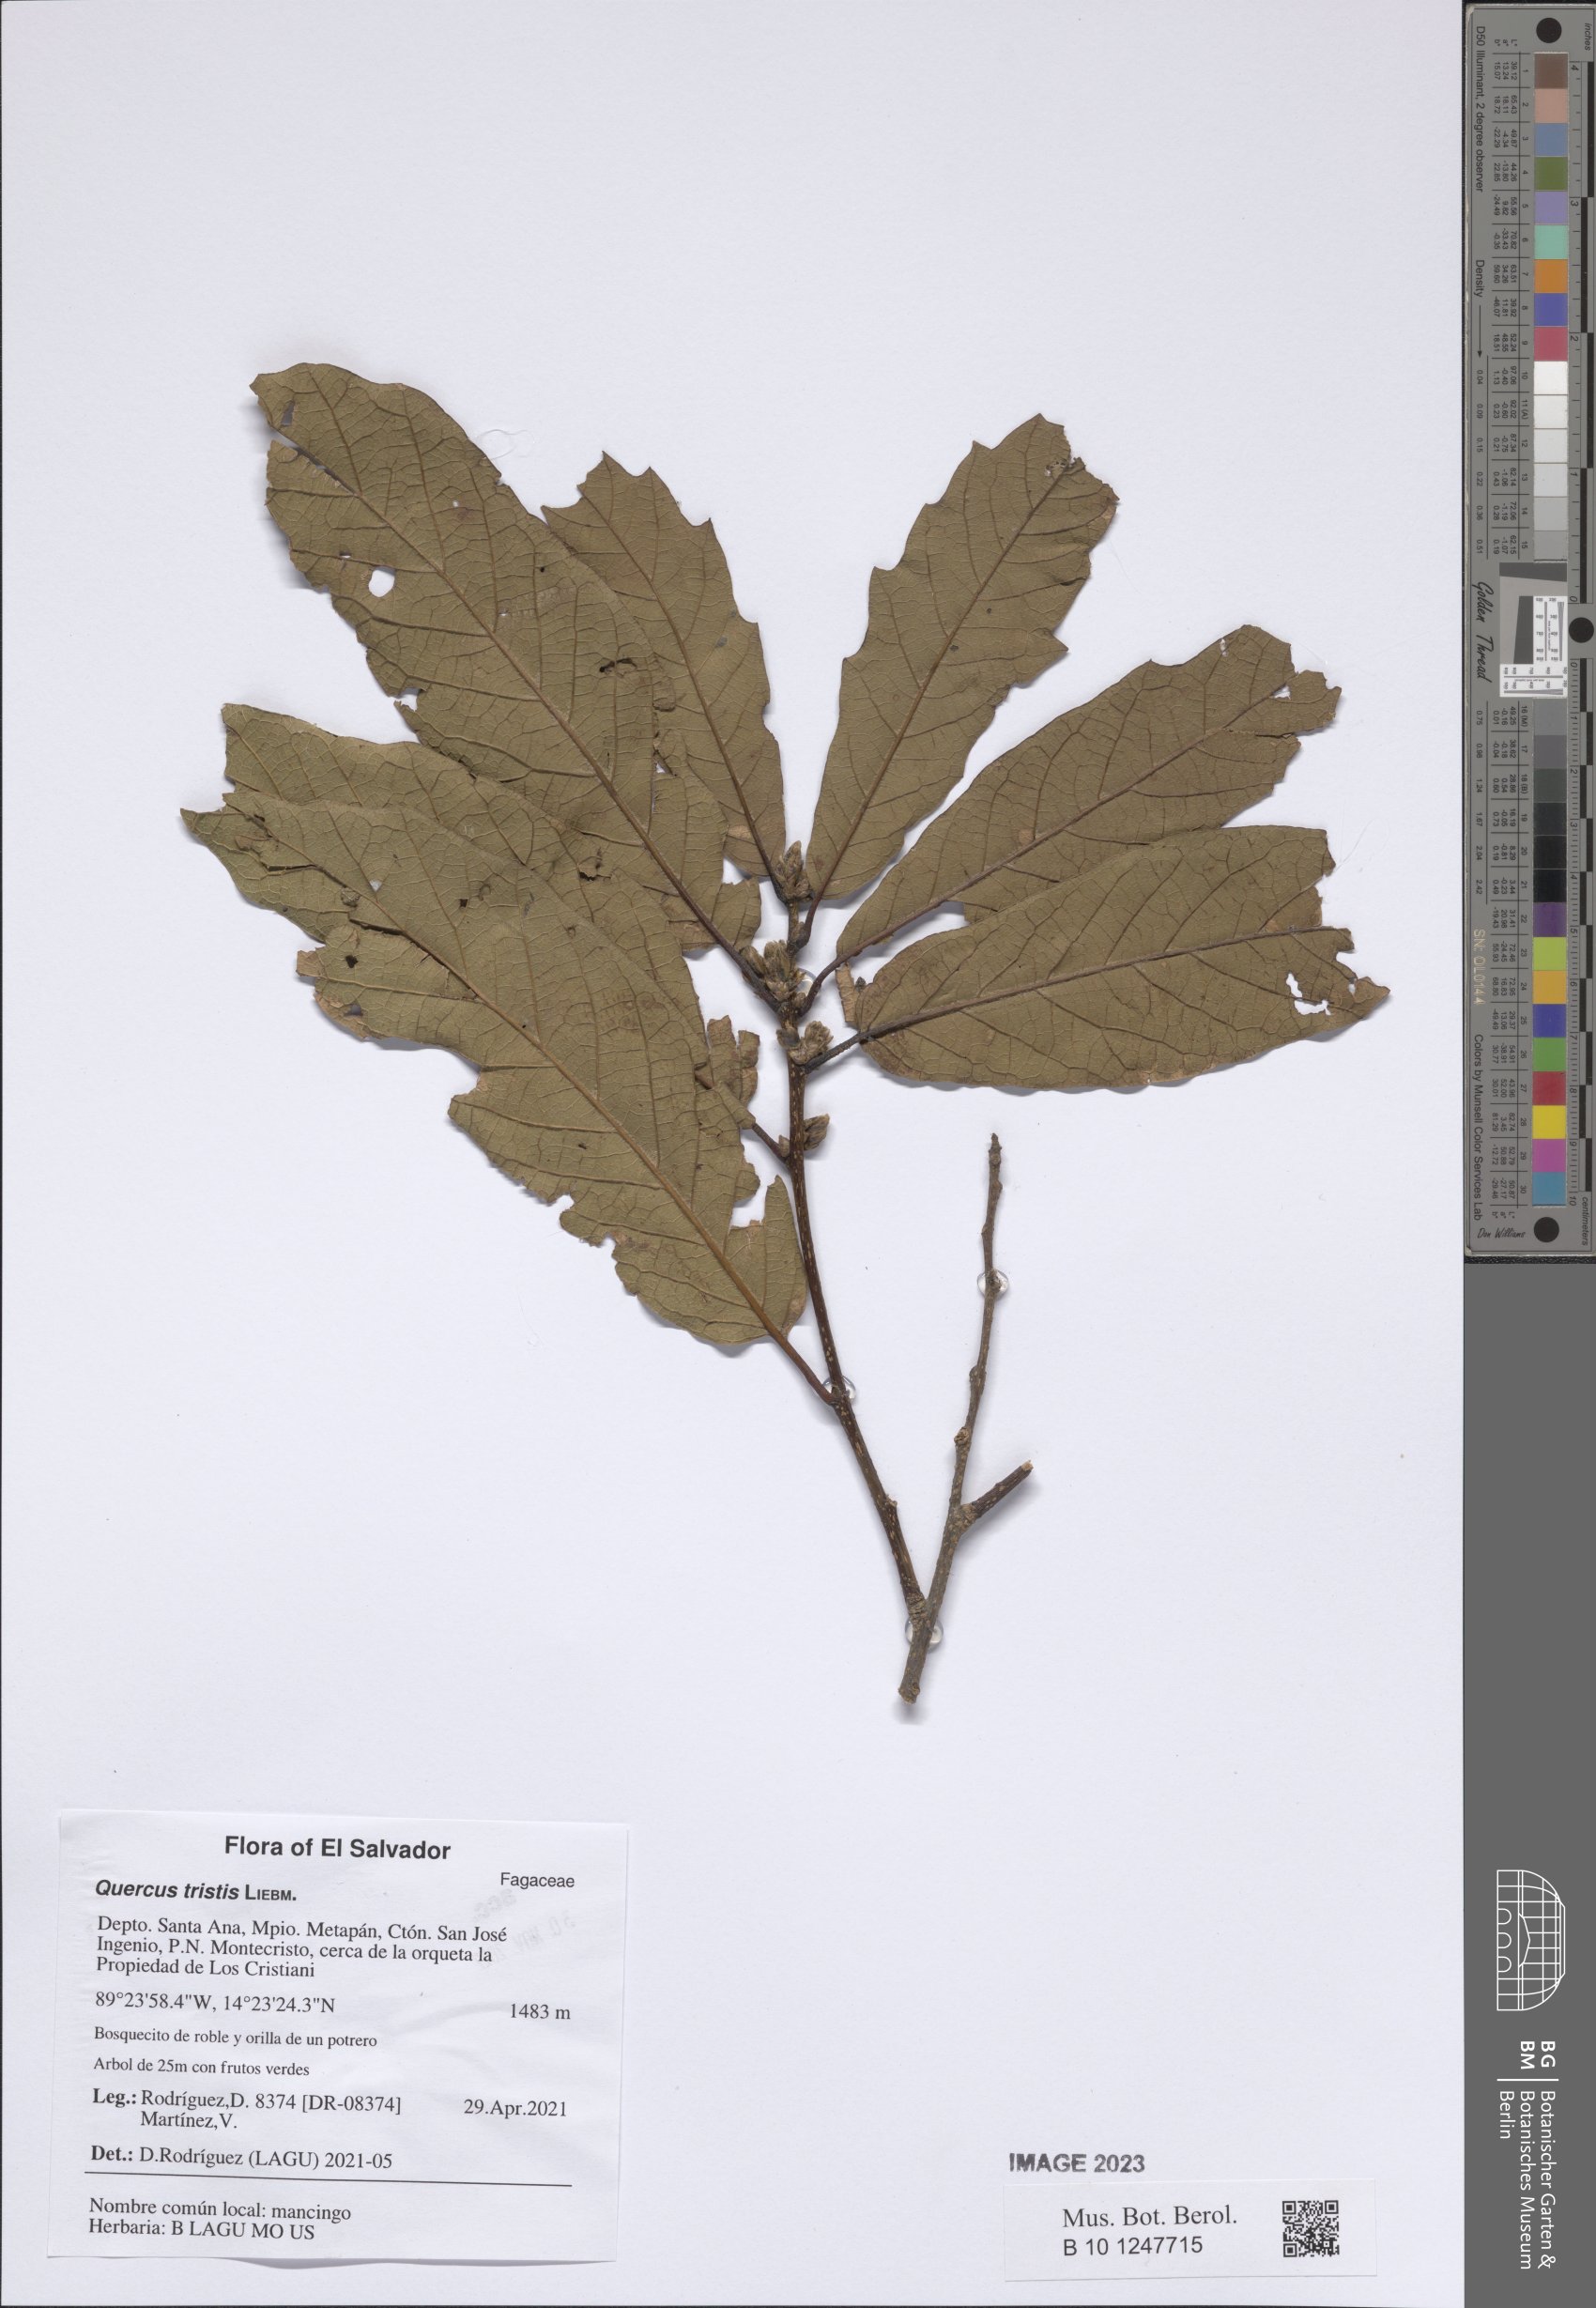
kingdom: Plantae
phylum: Tracheophyta
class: Magnoliopsida
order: Fagales
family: Fagaceae
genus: Quercus
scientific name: Quercus castanea
